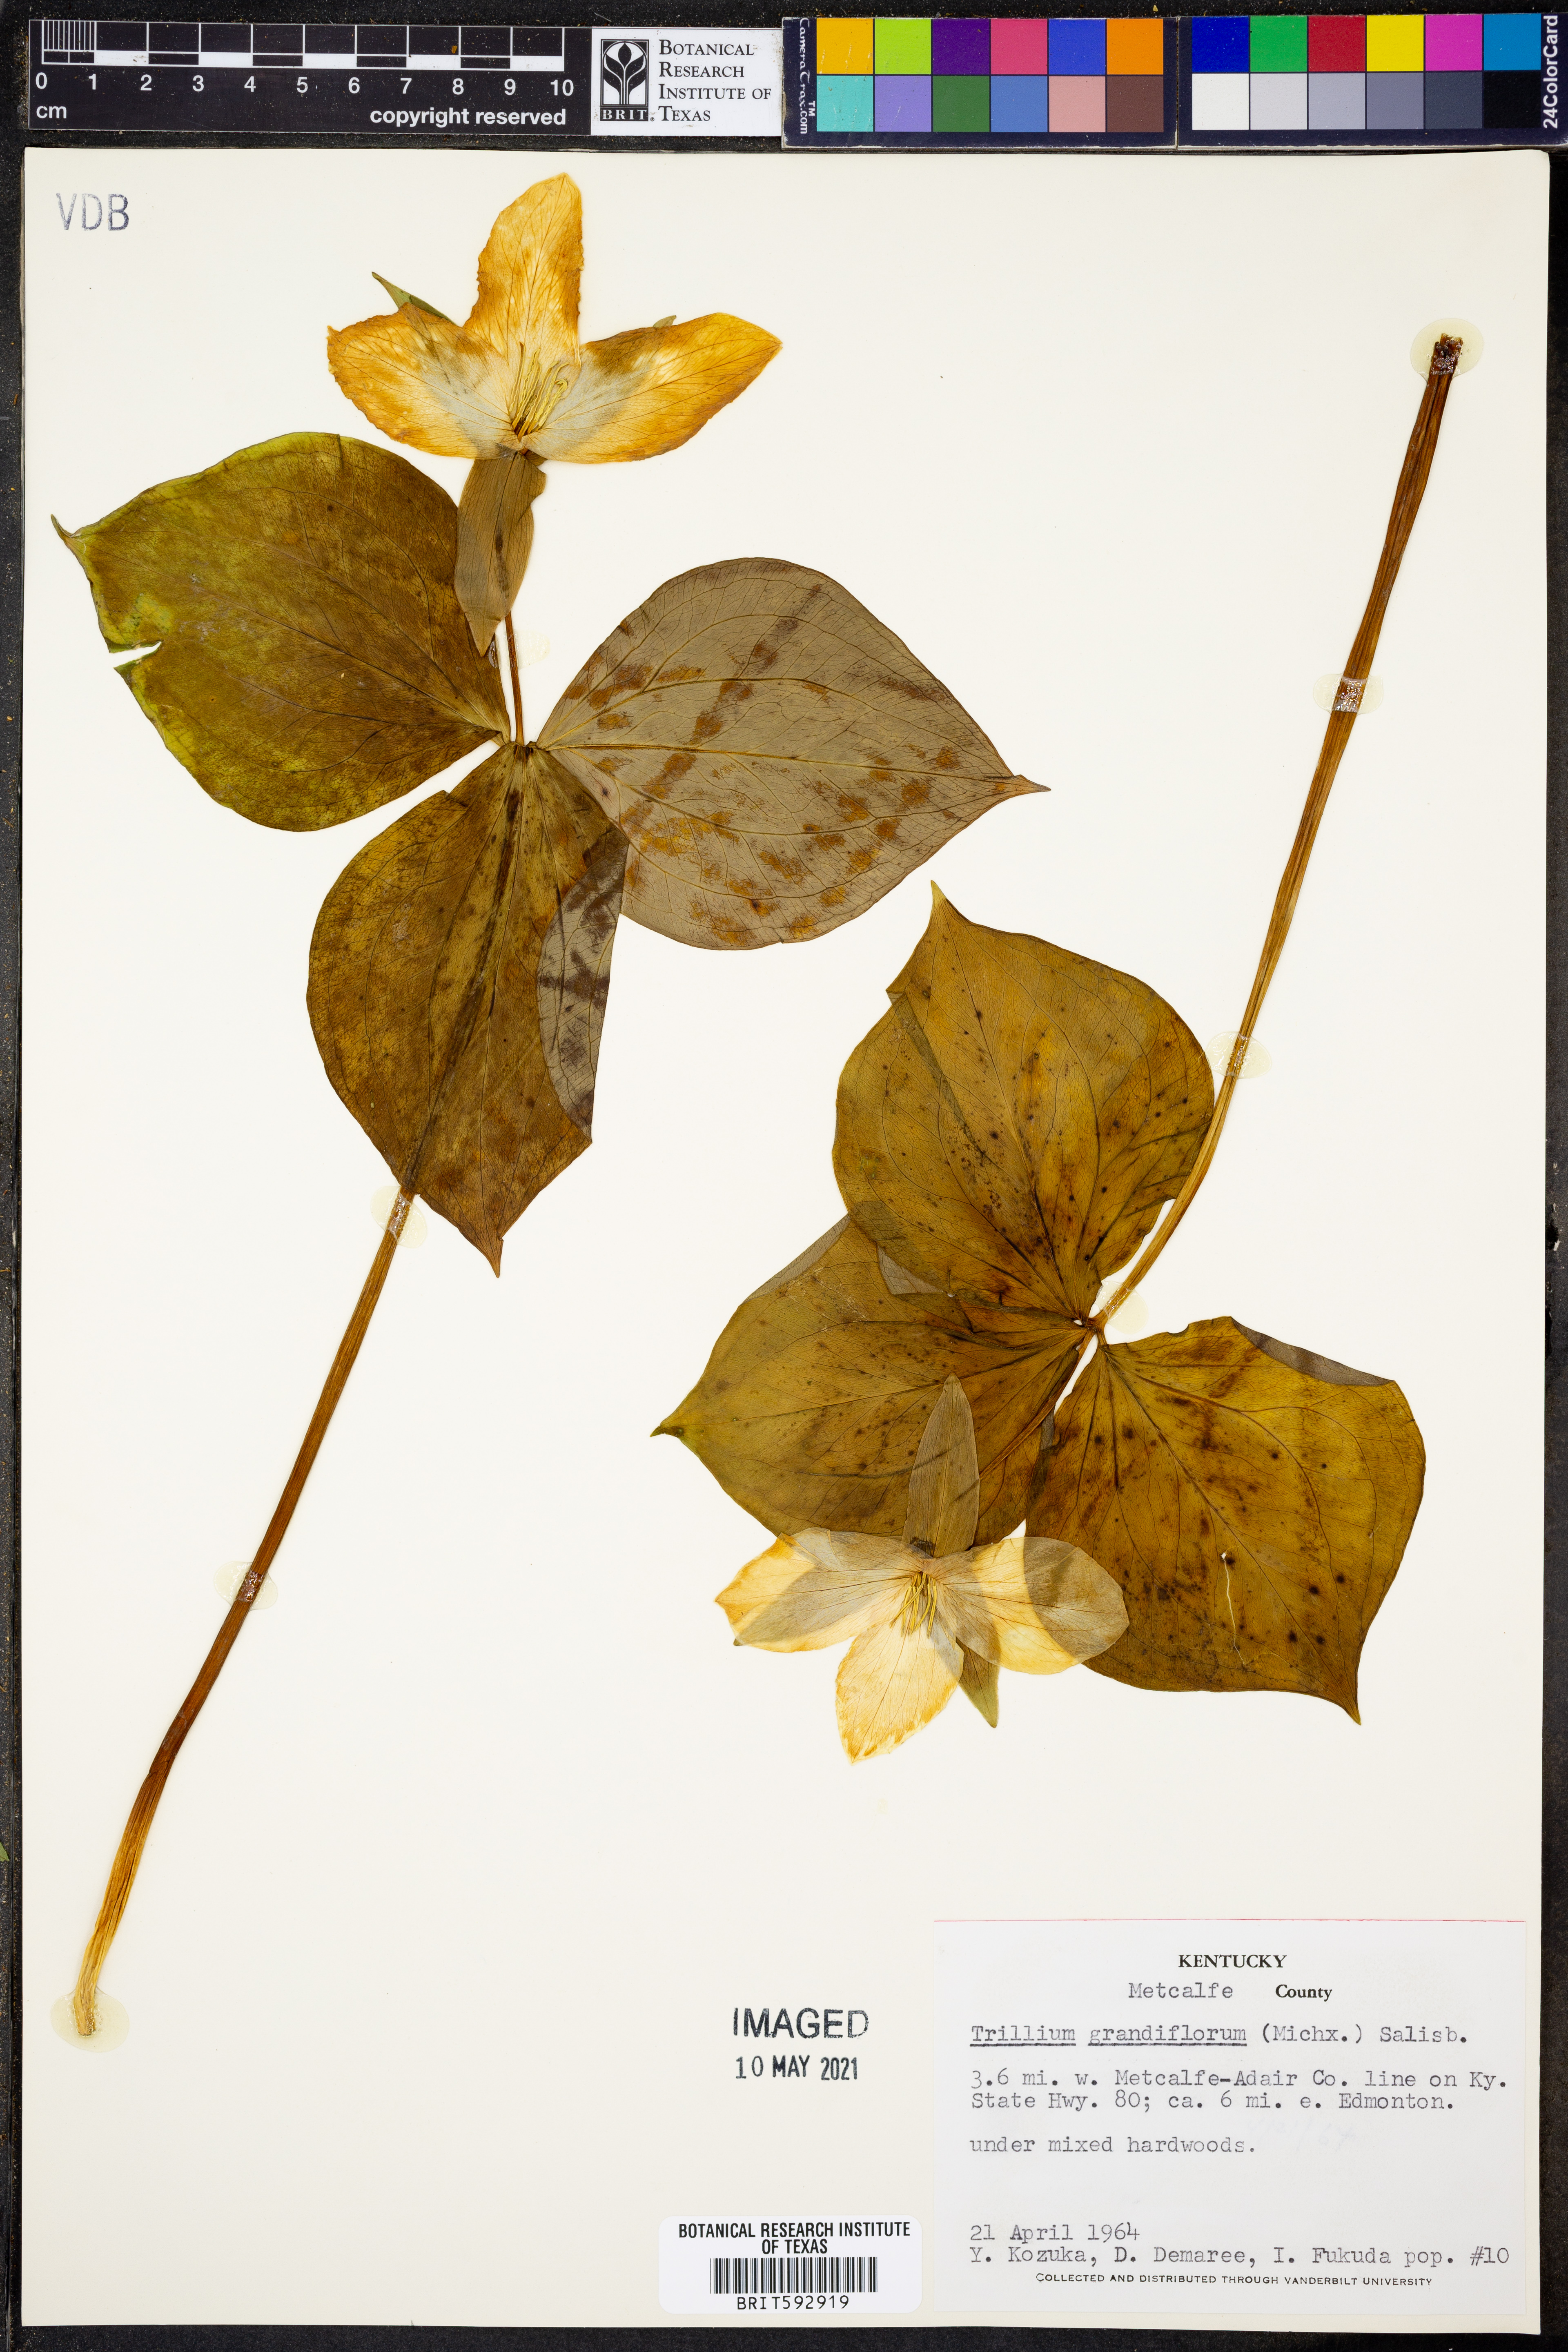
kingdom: Plantae
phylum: Tracheophyta
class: Liliopsida
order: Liliales
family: Melanthiaceae
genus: Trillium
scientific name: Trillium grandiflorum
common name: Great white trillium
